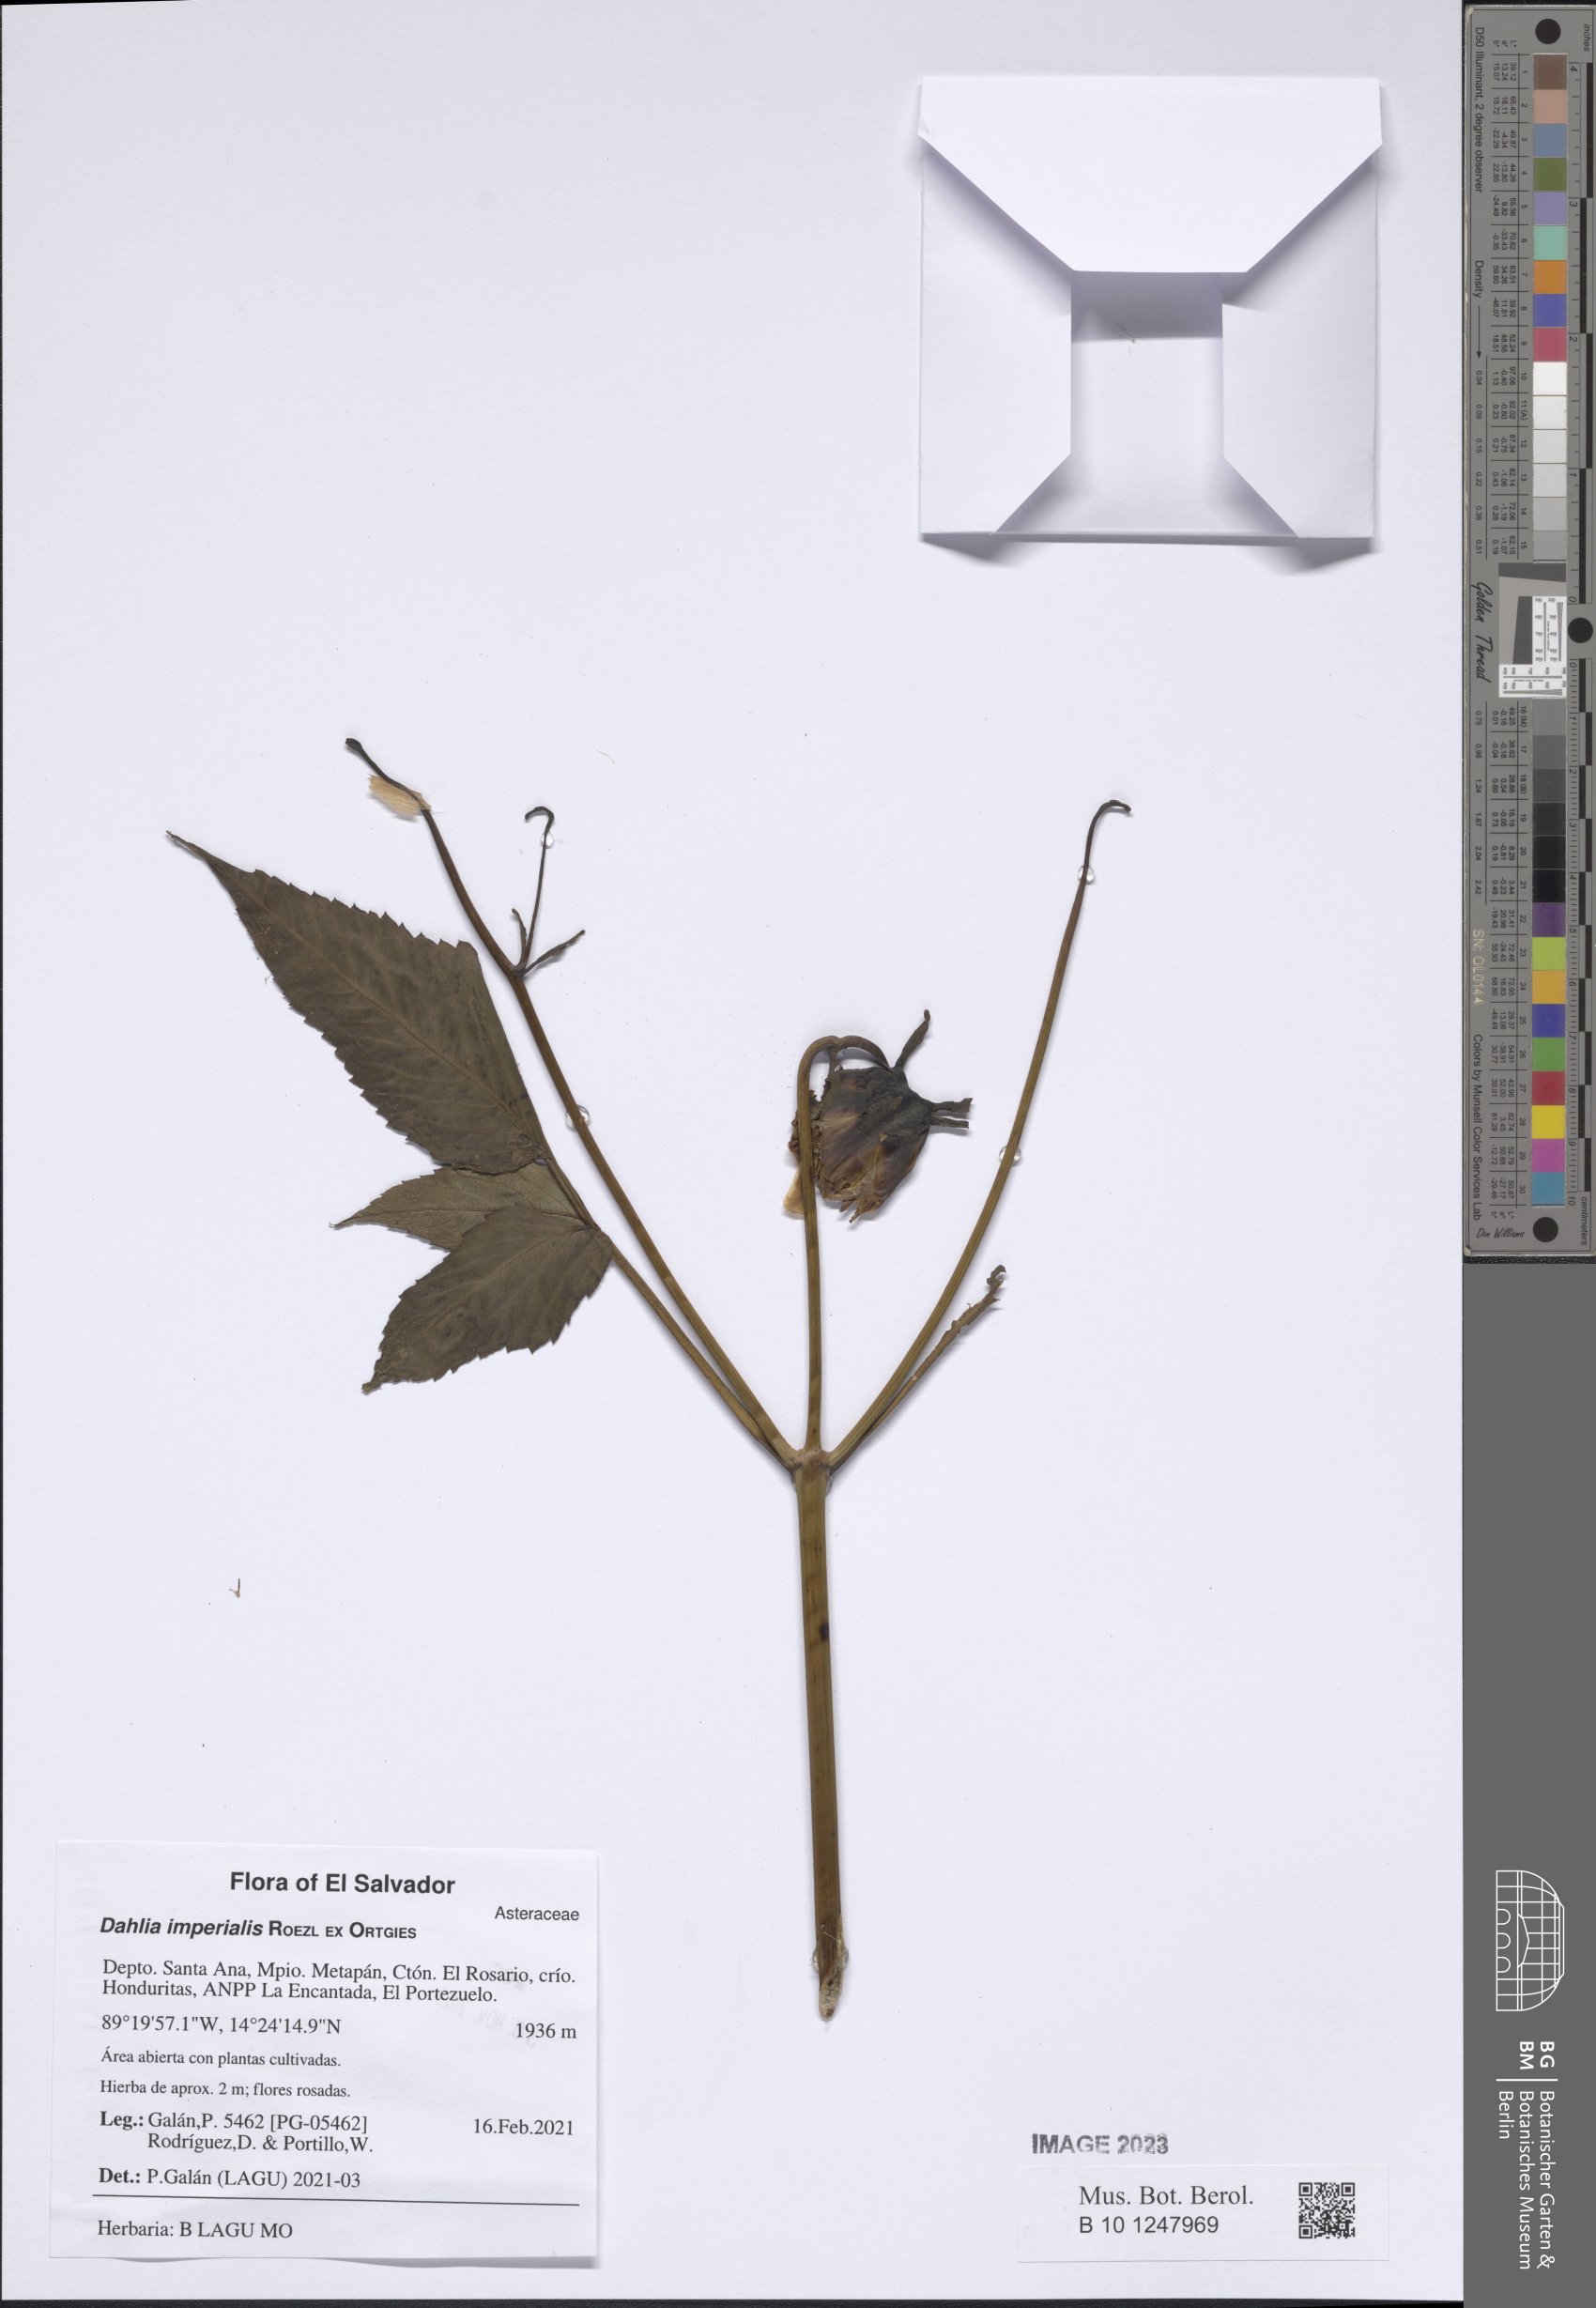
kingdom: Plantae
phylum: Tracheophyta
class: Magnoliopsida
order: Asterales
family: Asteraceae
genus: Dahlia
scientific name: Dahlia imperialis
